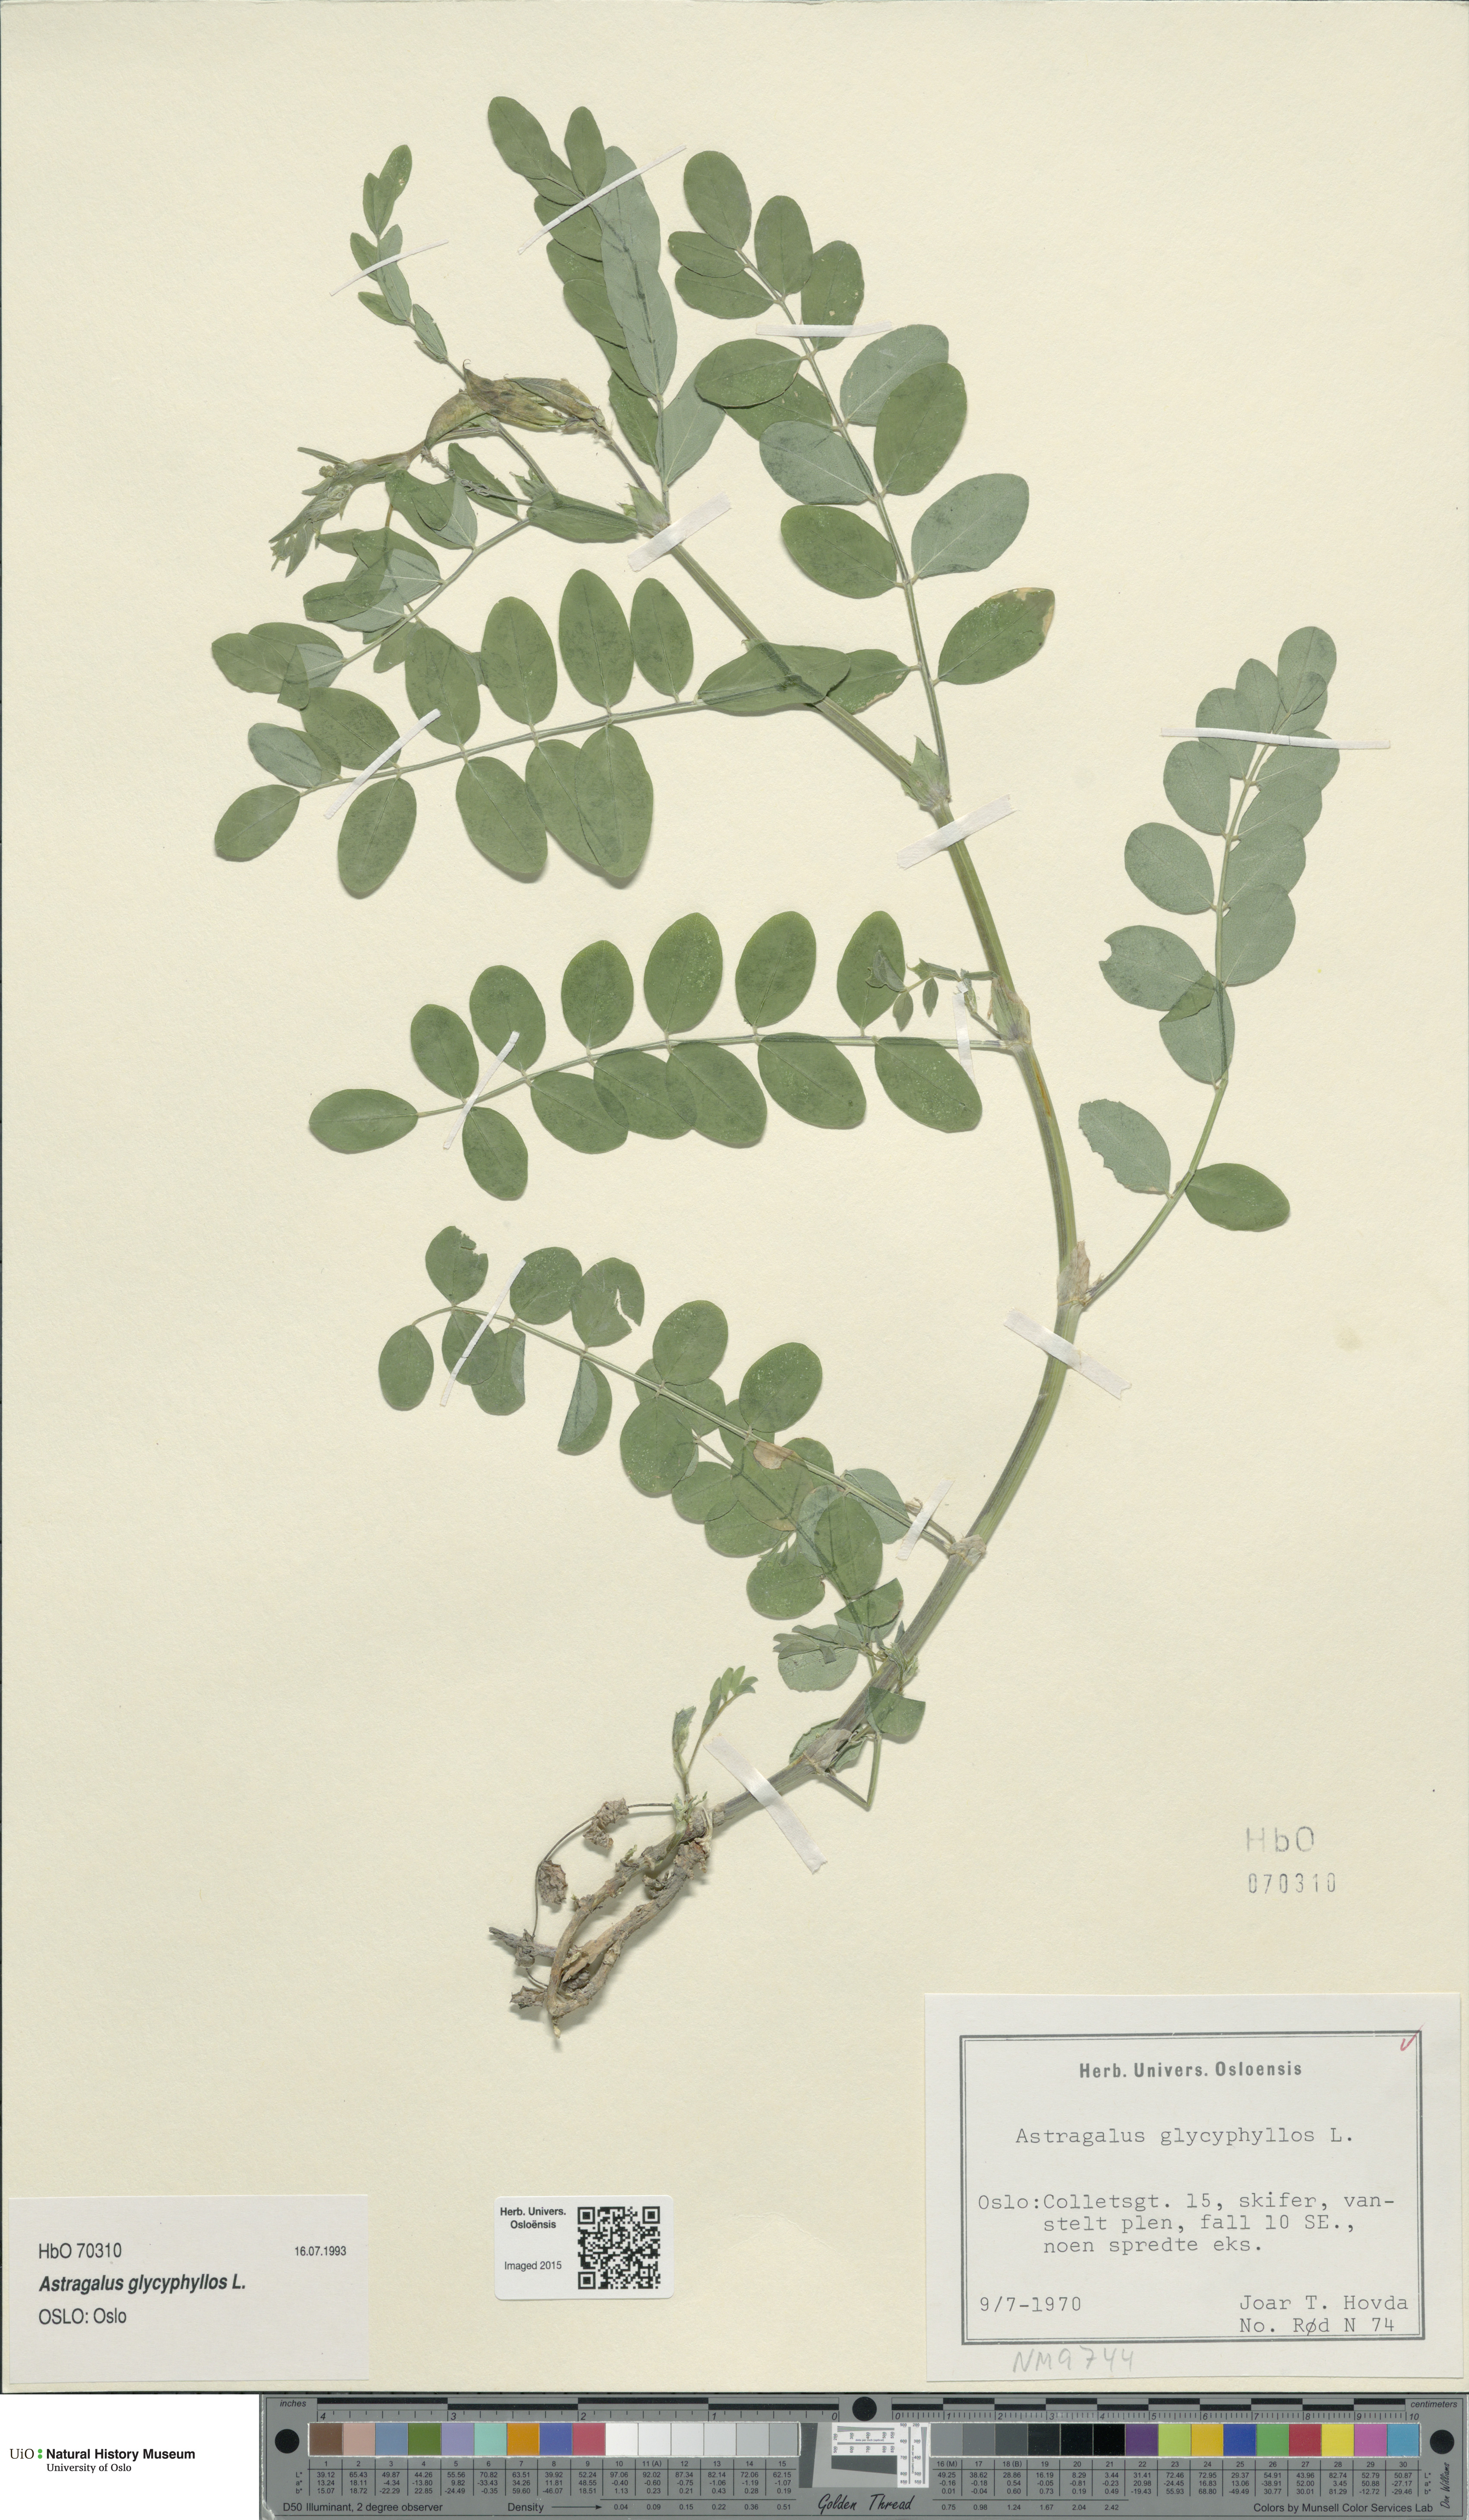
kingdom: Plantae
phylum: Tracheophyta
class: Magnoliopsida
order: Fabales
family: Fabaceae
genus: Astragalus
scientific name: Astragalus glycyphyllos
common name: Wild liquorice
